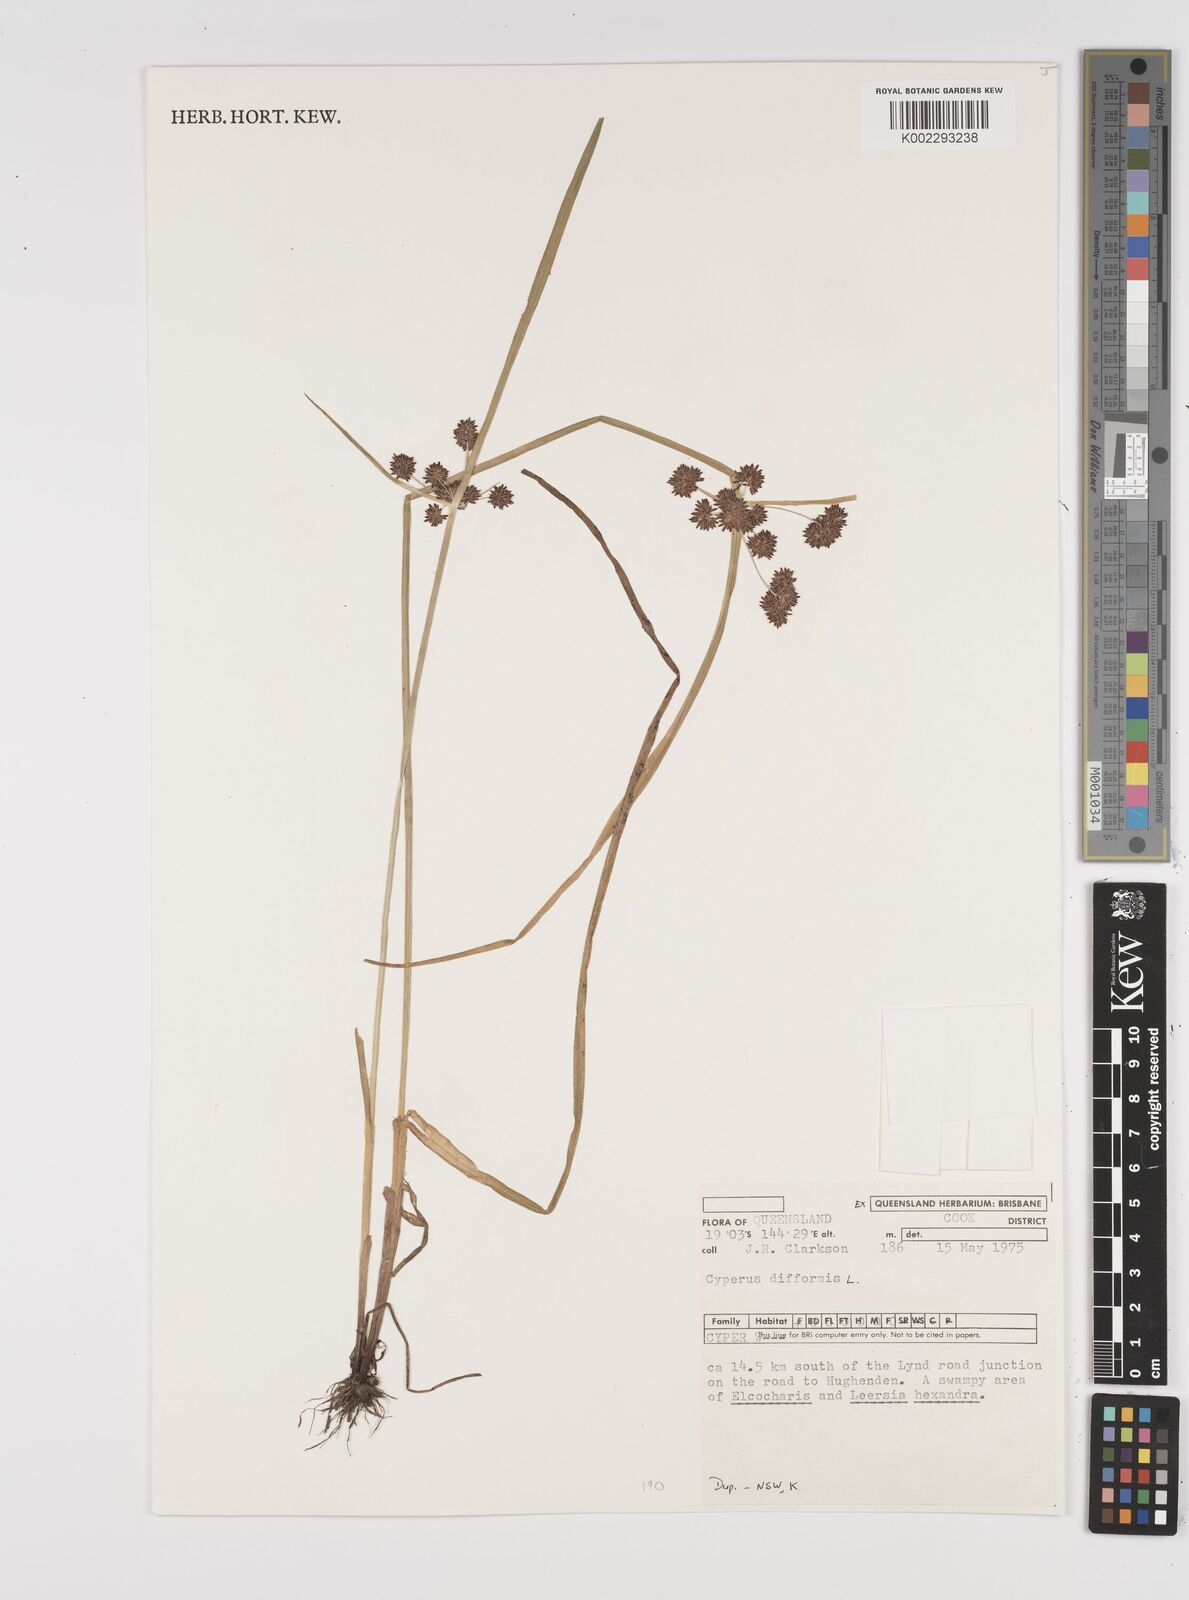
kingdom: Plantae
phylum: Tracheophyta
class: Liliopsida
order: Poales
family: Cyperaceae
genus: Cyperus
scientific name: Cyperus difformis
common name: Variable flatsedge
